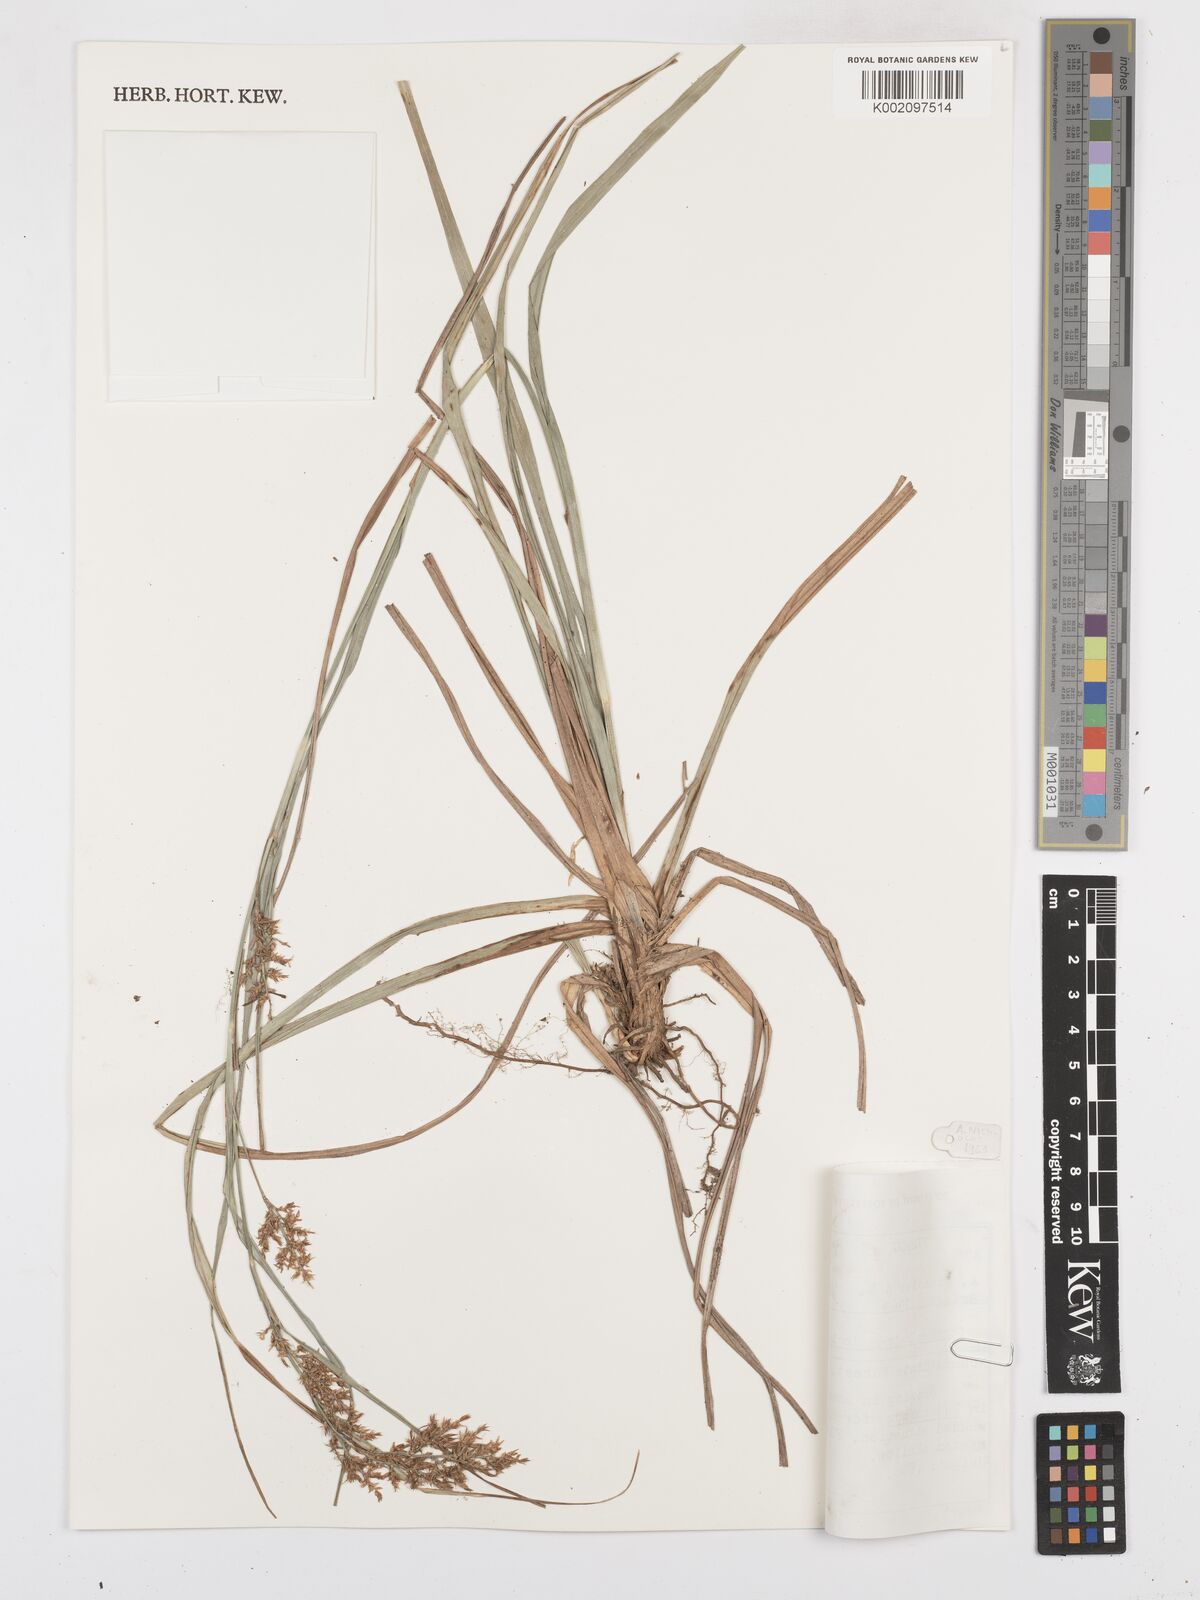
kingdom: Plantae
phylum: Tracheophyta
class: Liliopsida
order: Poales
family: Cyperaceae
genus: Carex
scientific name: Carex spicatopaniculata
